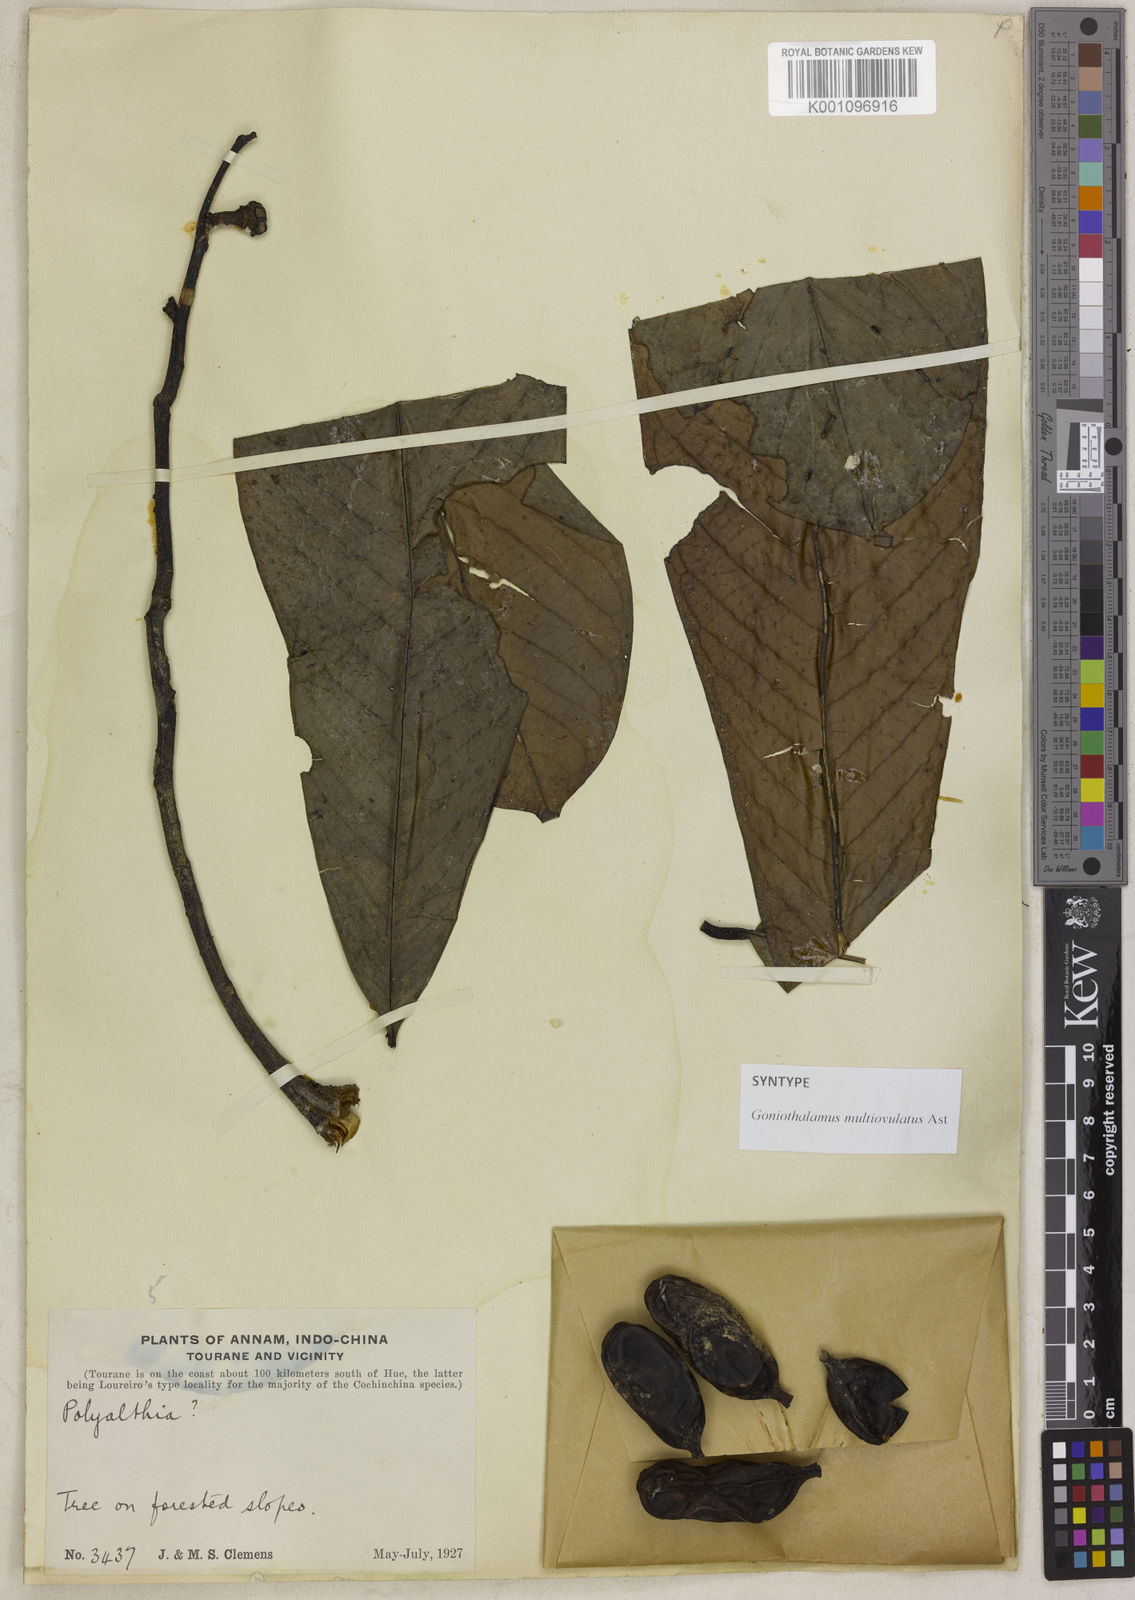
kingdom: Plantae
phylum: Tracheophyta
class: Magnoliopsida
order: Magnoliales
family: Annonaceae
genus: Goniothalamus
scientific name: Goniothalamus multiovulatus
